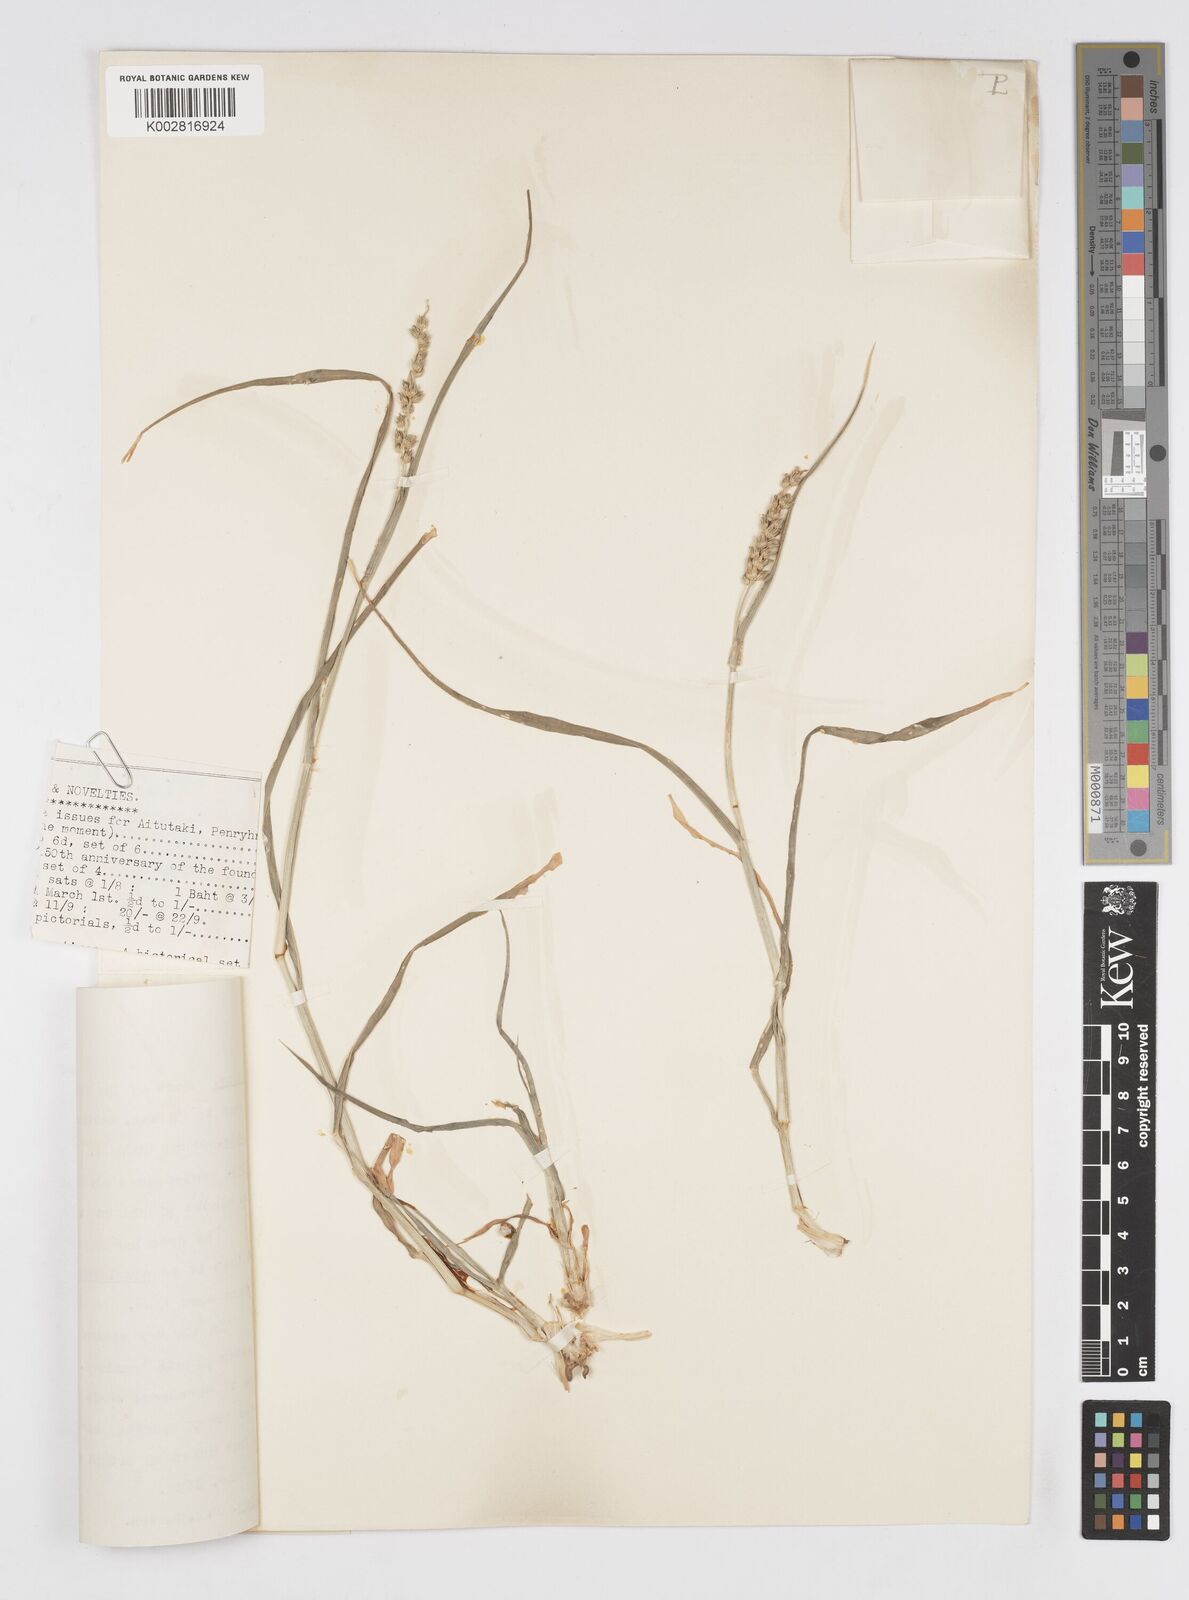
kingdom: Plantae
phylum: Tracheophyta
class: Liliopsida
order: Poales
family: Poaceae
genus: Cenchrus
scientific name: Cenchrus setigerus
